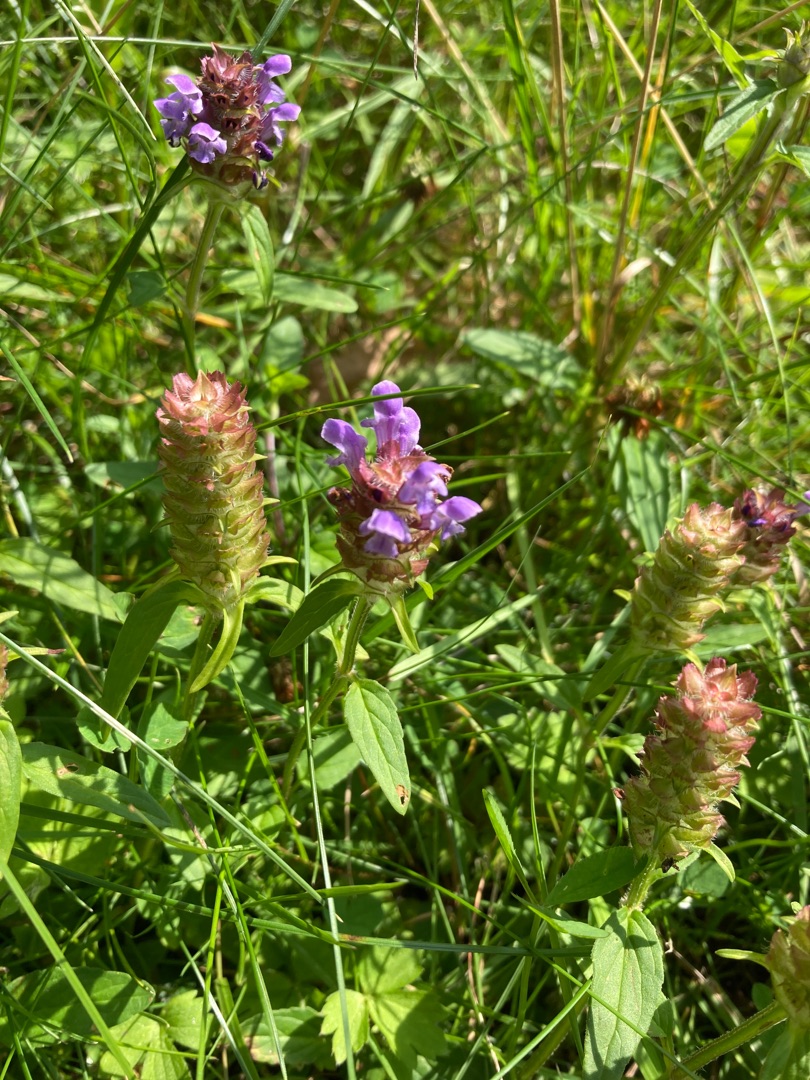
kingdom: Plantae
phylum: Tracheophyta
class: Magnoliopsida
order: Lamiales
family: Lamiaceae
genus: Prunella
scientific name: Prunella vulgaris
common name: Almindelig brunelle
